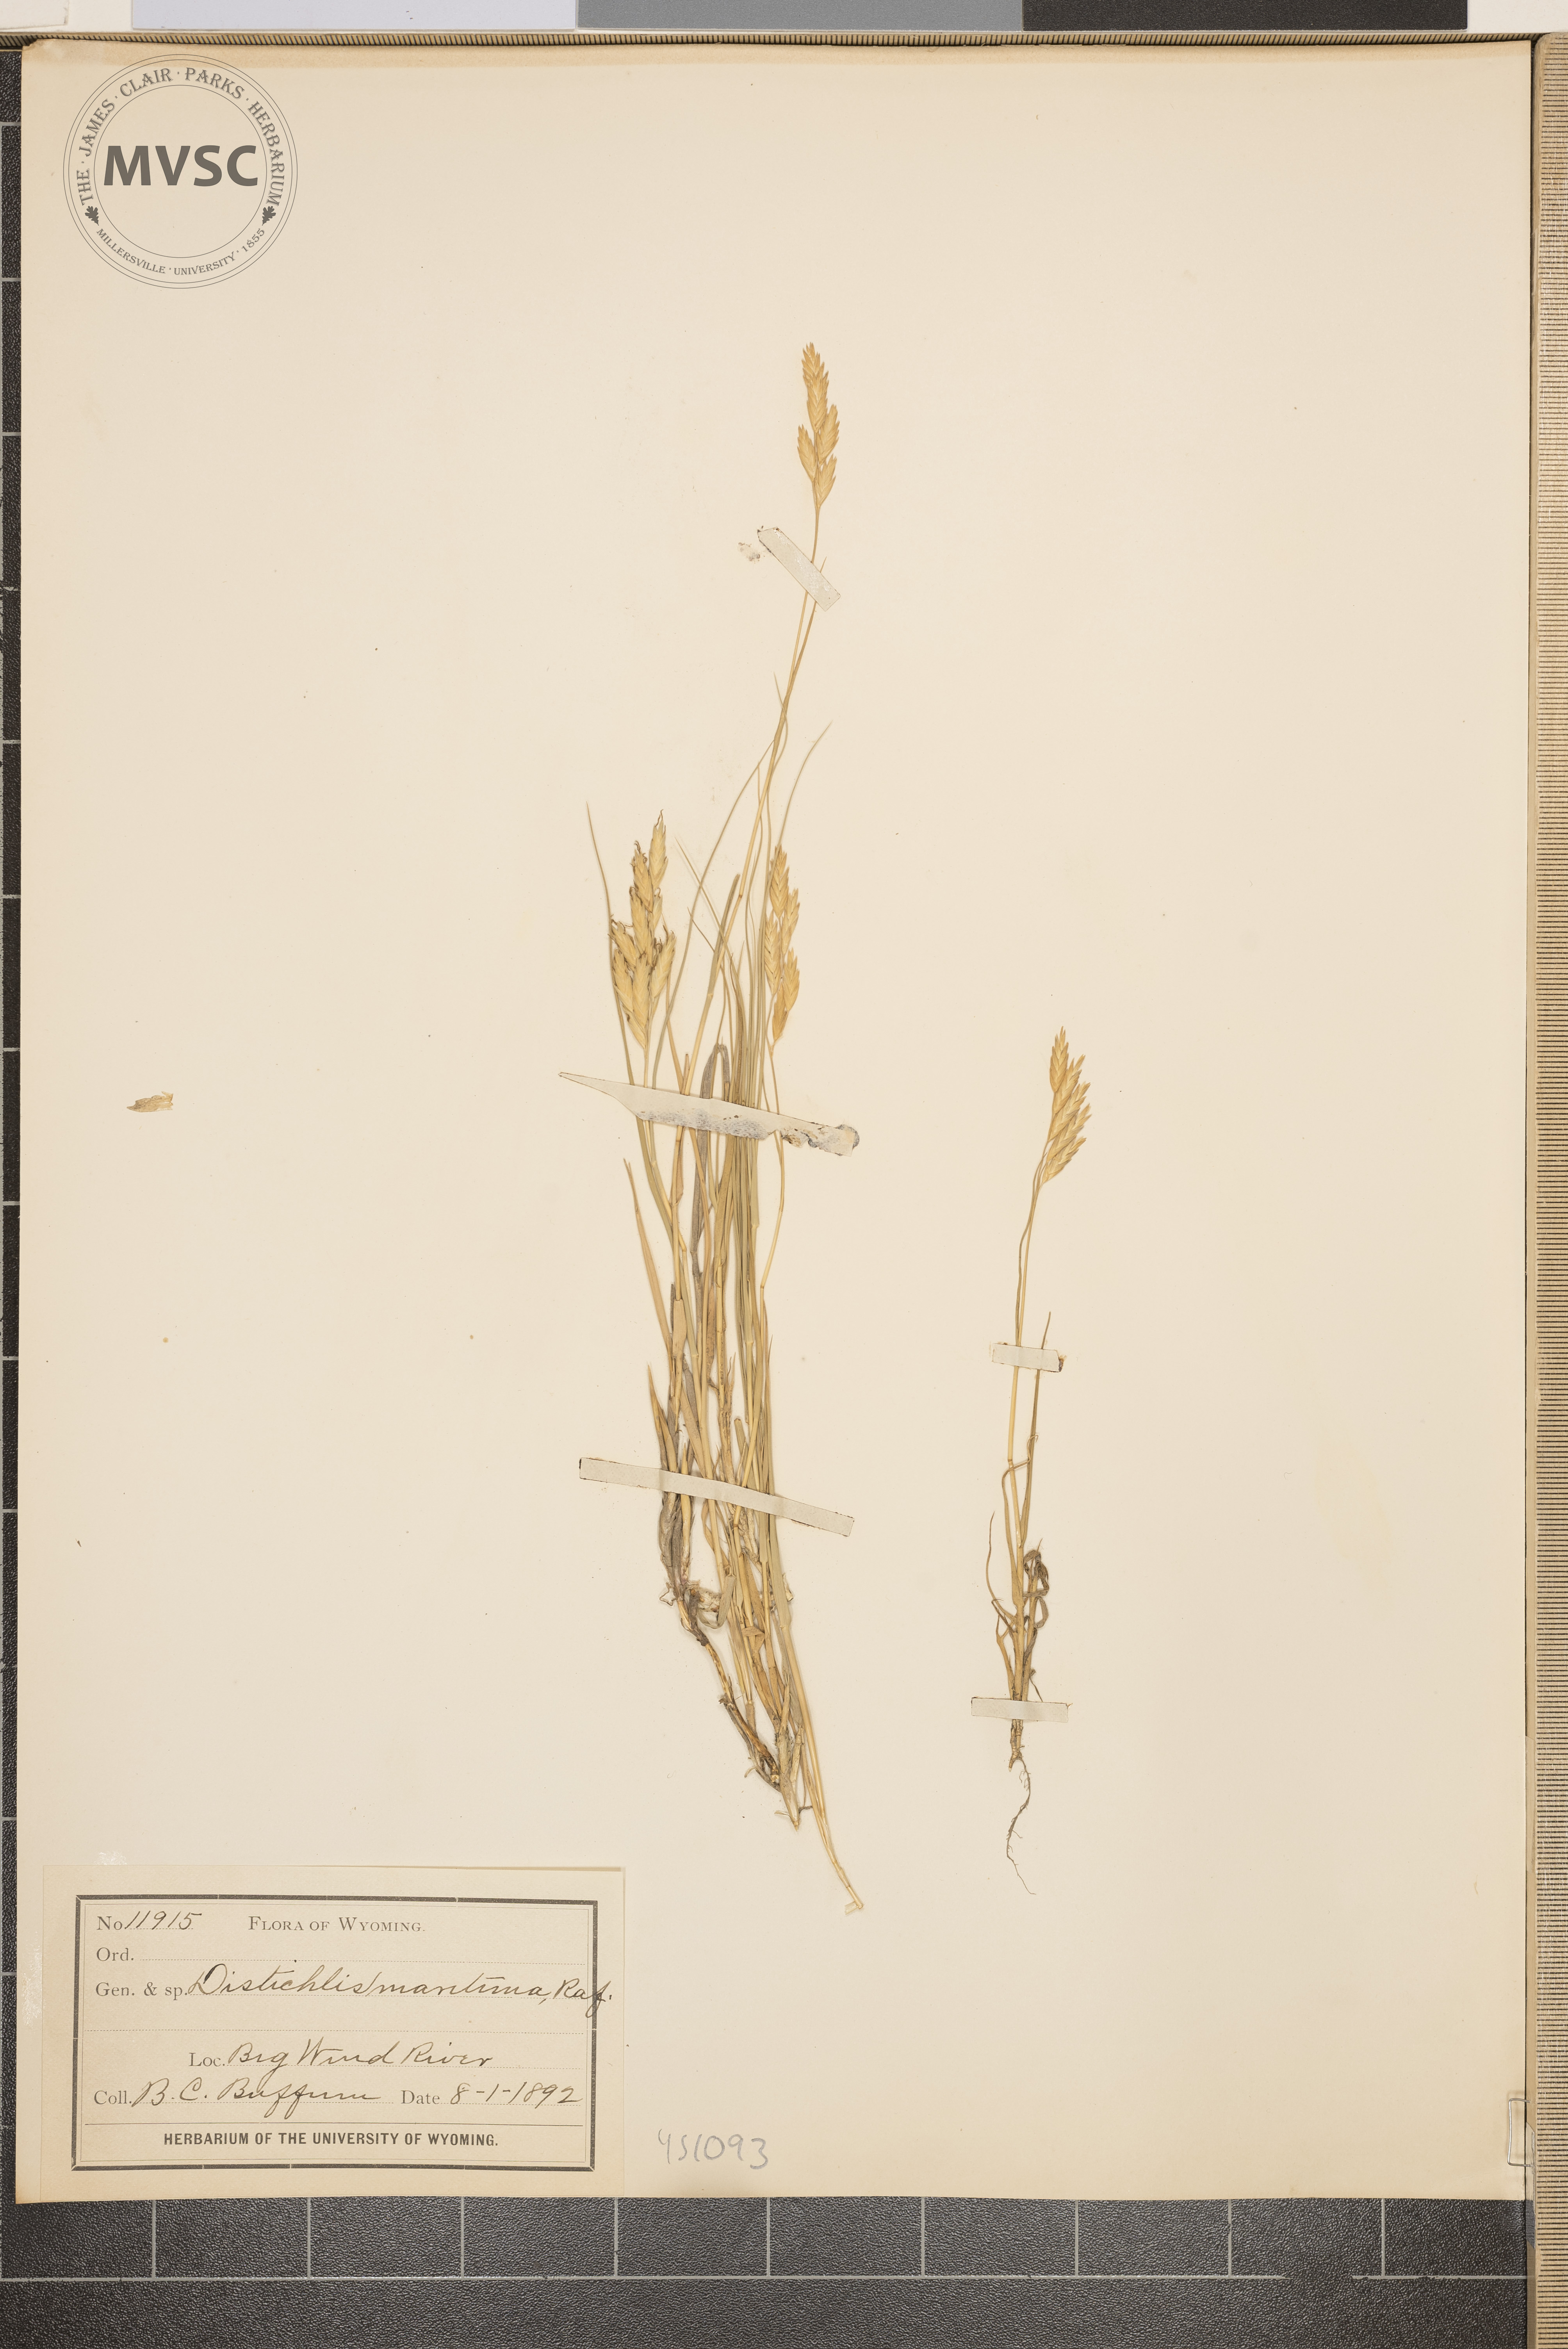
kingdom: Plantae
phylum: Tracheophyta
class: Liliopsida
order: Poales
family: Poaceae
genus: Distichlis
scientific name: Distichlis spicata
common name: Saltgrass
